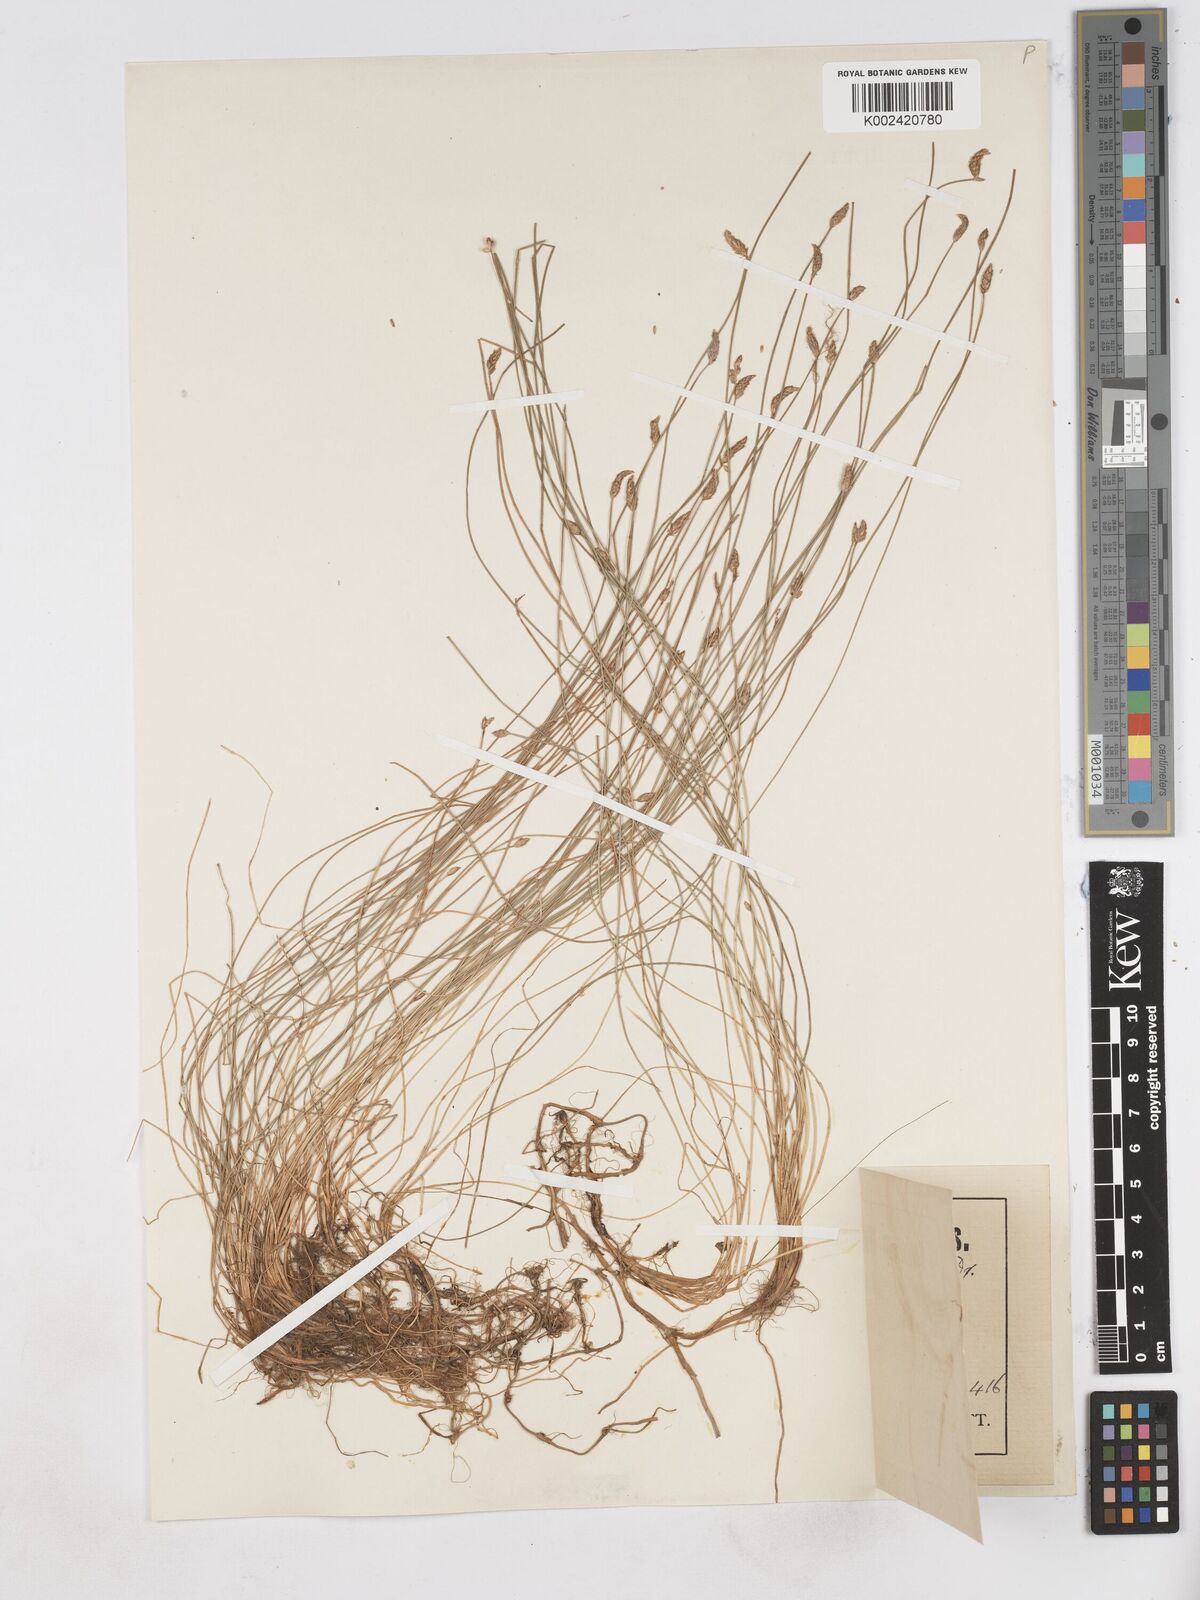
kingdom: Plantae
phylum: Tracheophyta
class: Liliopsida
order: Poales
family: Cyperaceae
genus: Eleocharis
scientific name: Eleocharis bonariensis
